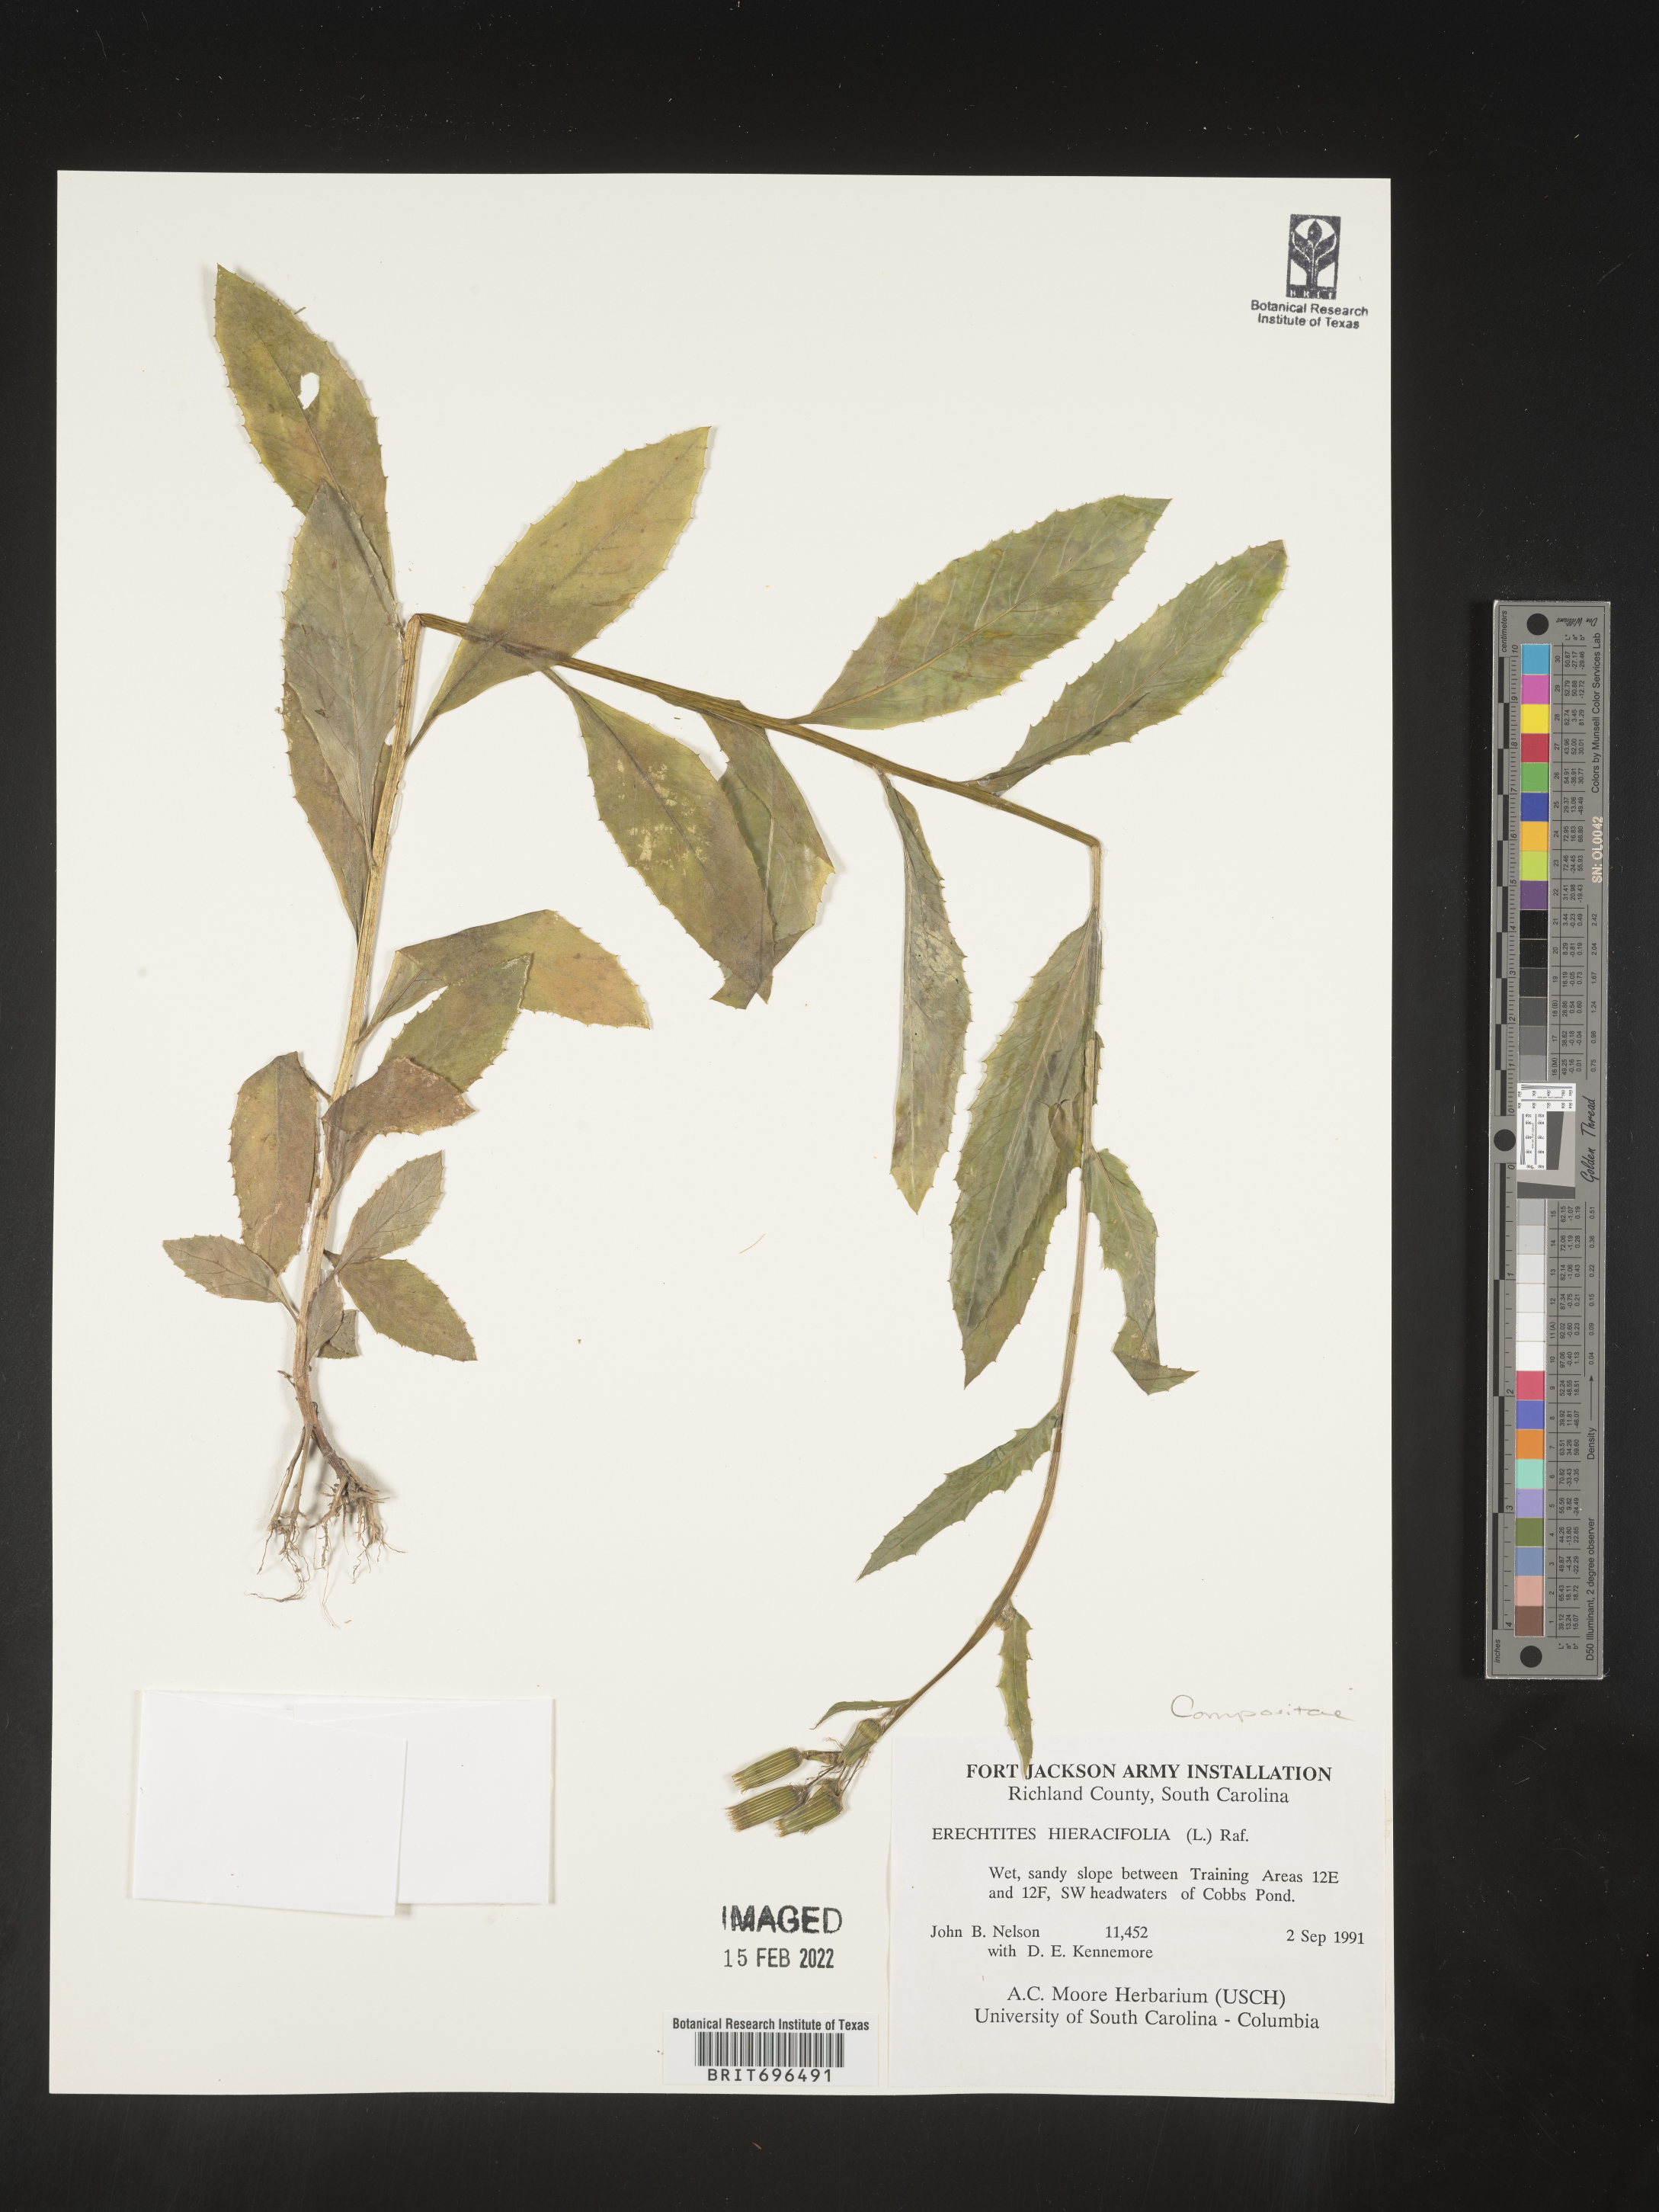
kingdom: Plantae
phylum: Tracheophyta
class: Magnoliopsida
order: Asterales
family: Asteraceae
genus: Erechtites
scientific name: Erechtites hieraciifolius
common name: American burnweed
